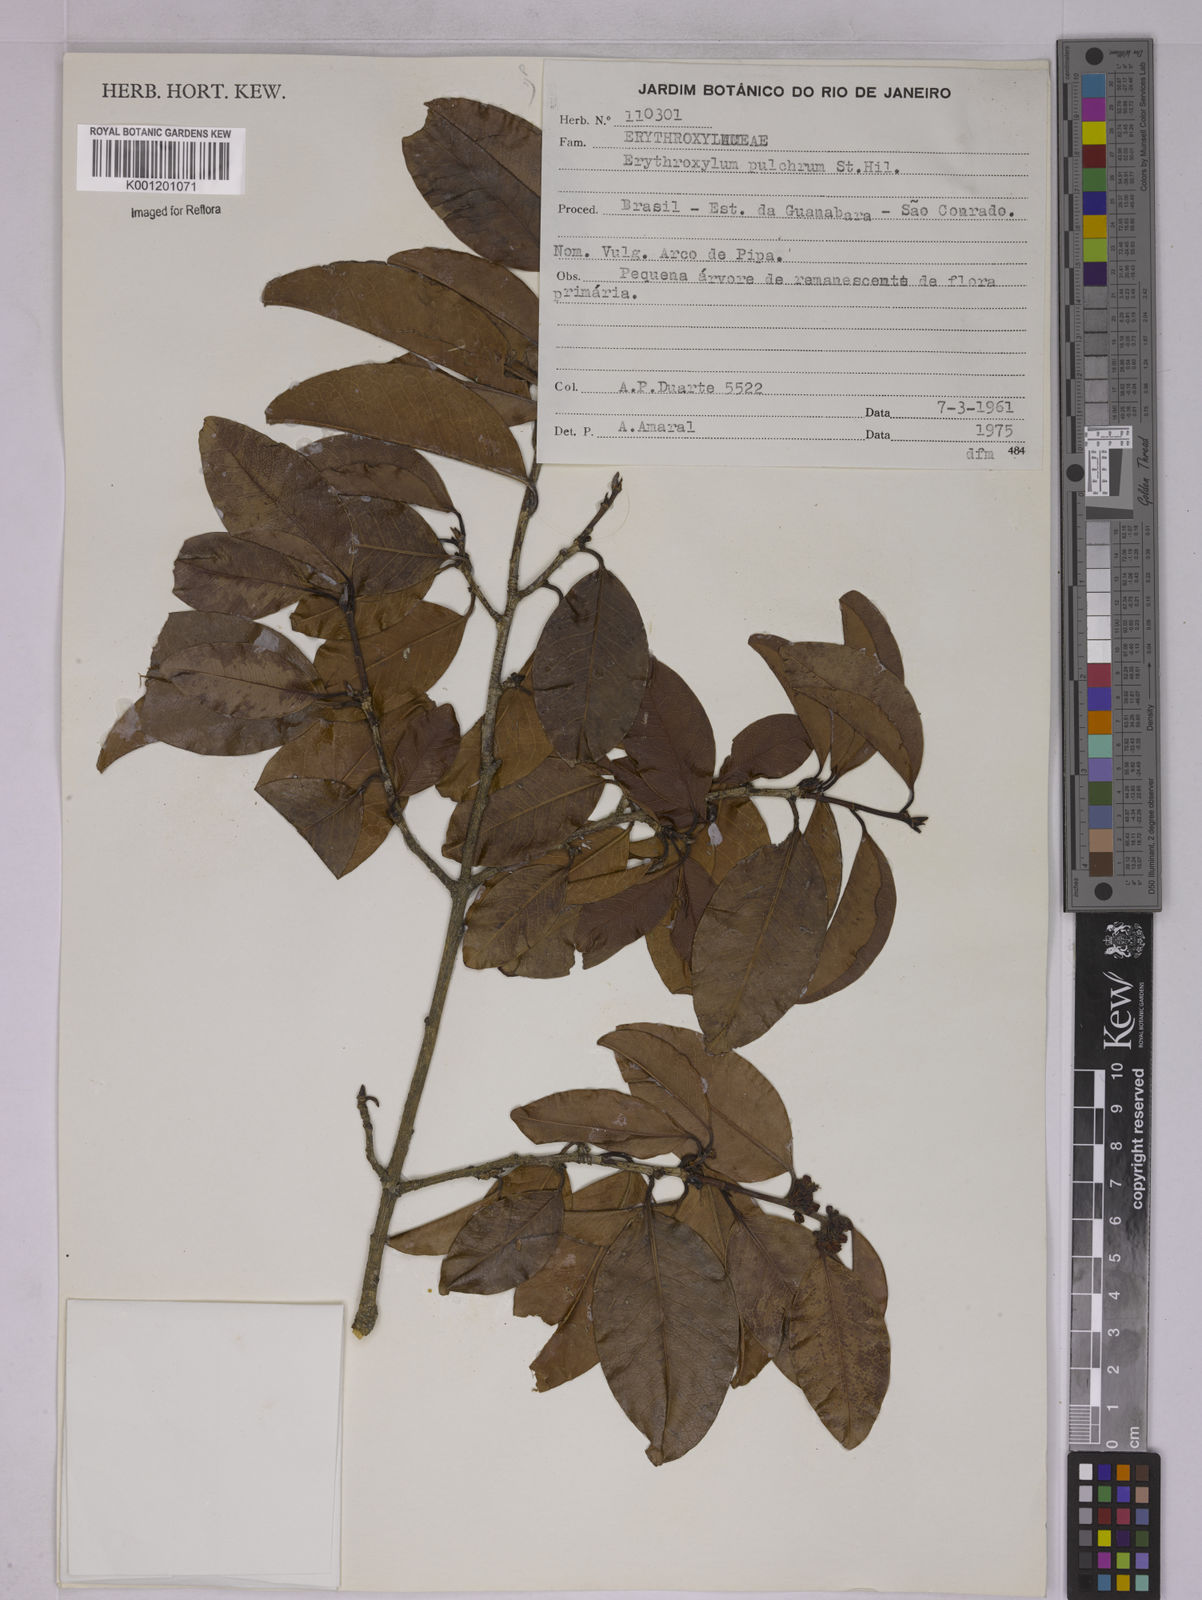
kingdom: Plantae
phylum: Tracheophyta
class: Magnoliopsida
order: Malpighiales
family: Erythroxylaceae
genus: Erythroxylum
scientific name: Erythroxylum pulchrum
